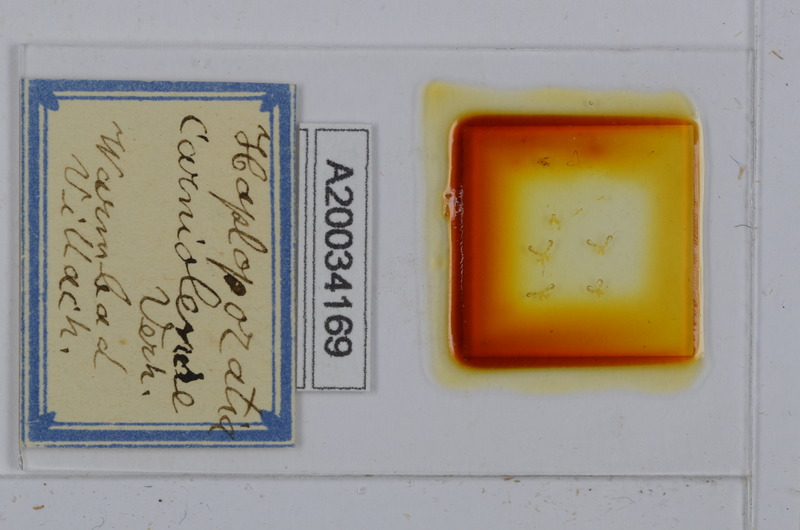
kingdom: Animalia
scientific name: Animalia
